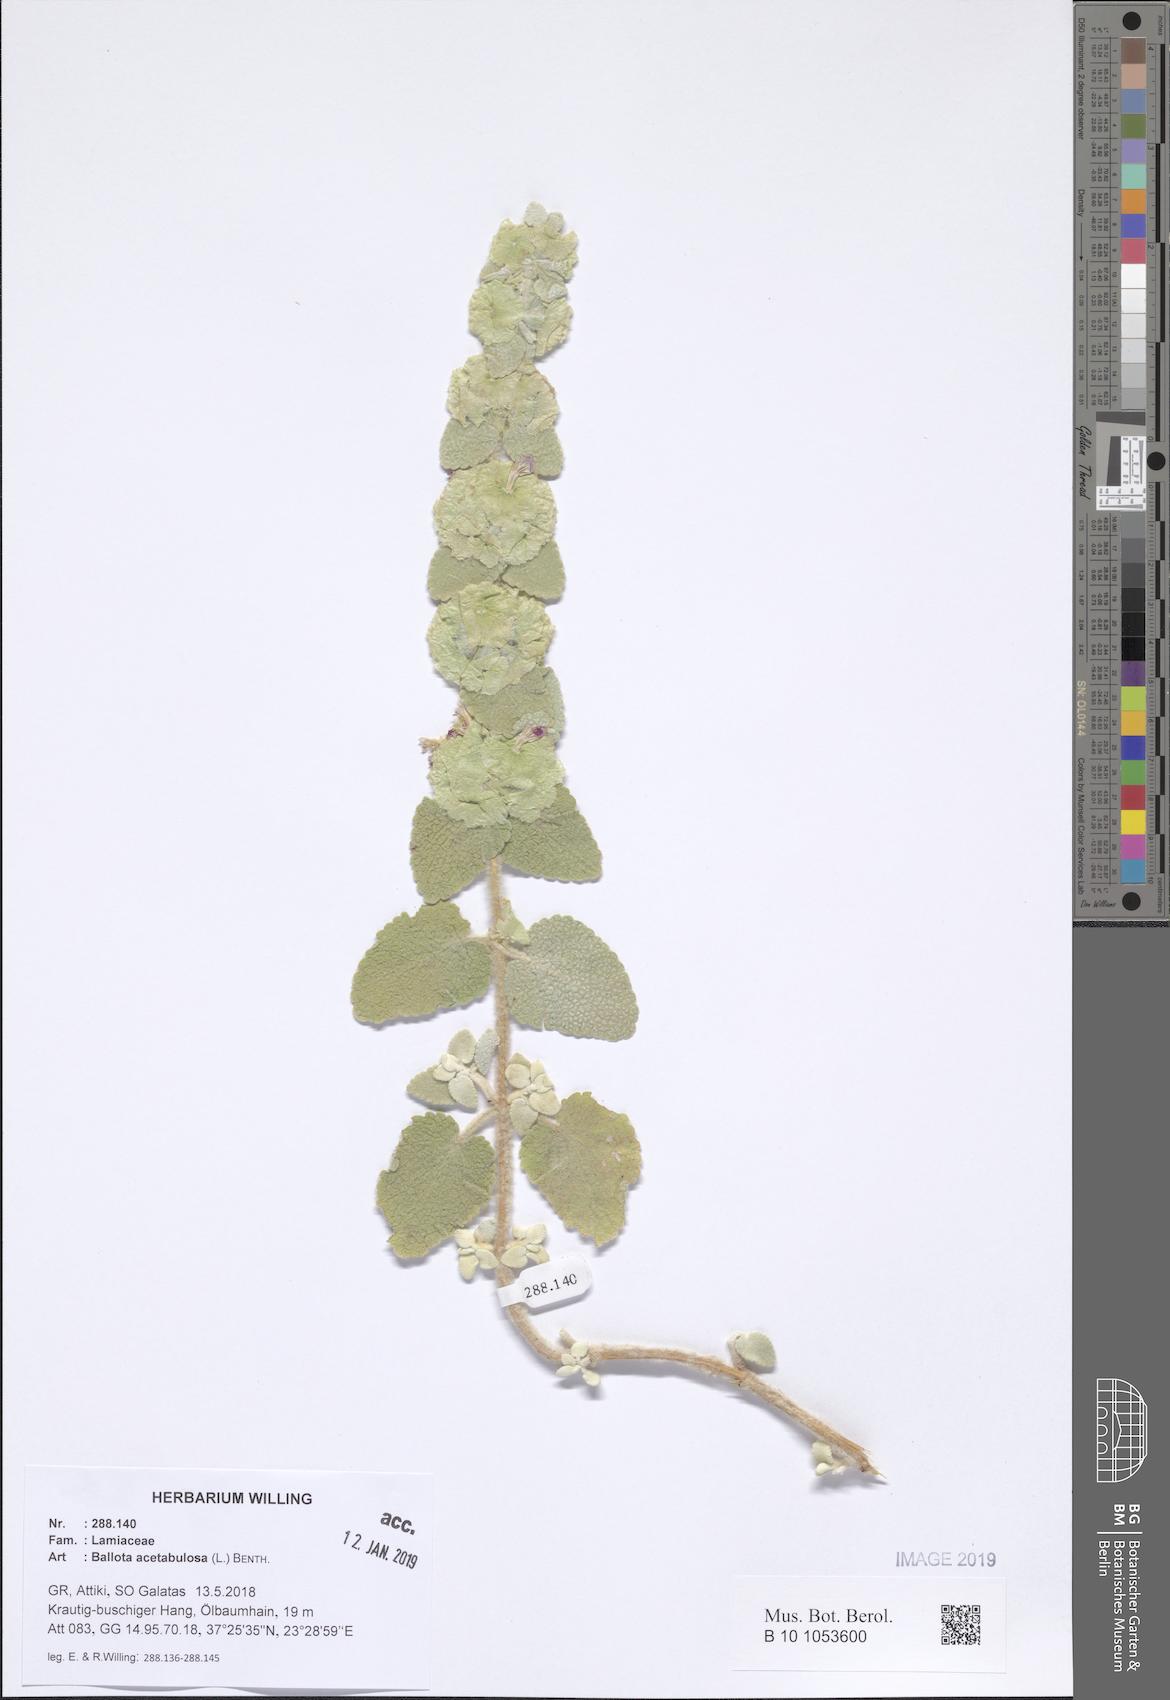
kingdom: Plantae
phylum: Tracheophyta
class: Magnoliopsida
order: Lamiales
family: Lamiaceae
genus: Pseudodictamnus
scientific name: Pseudodictamnus acetabulosus
